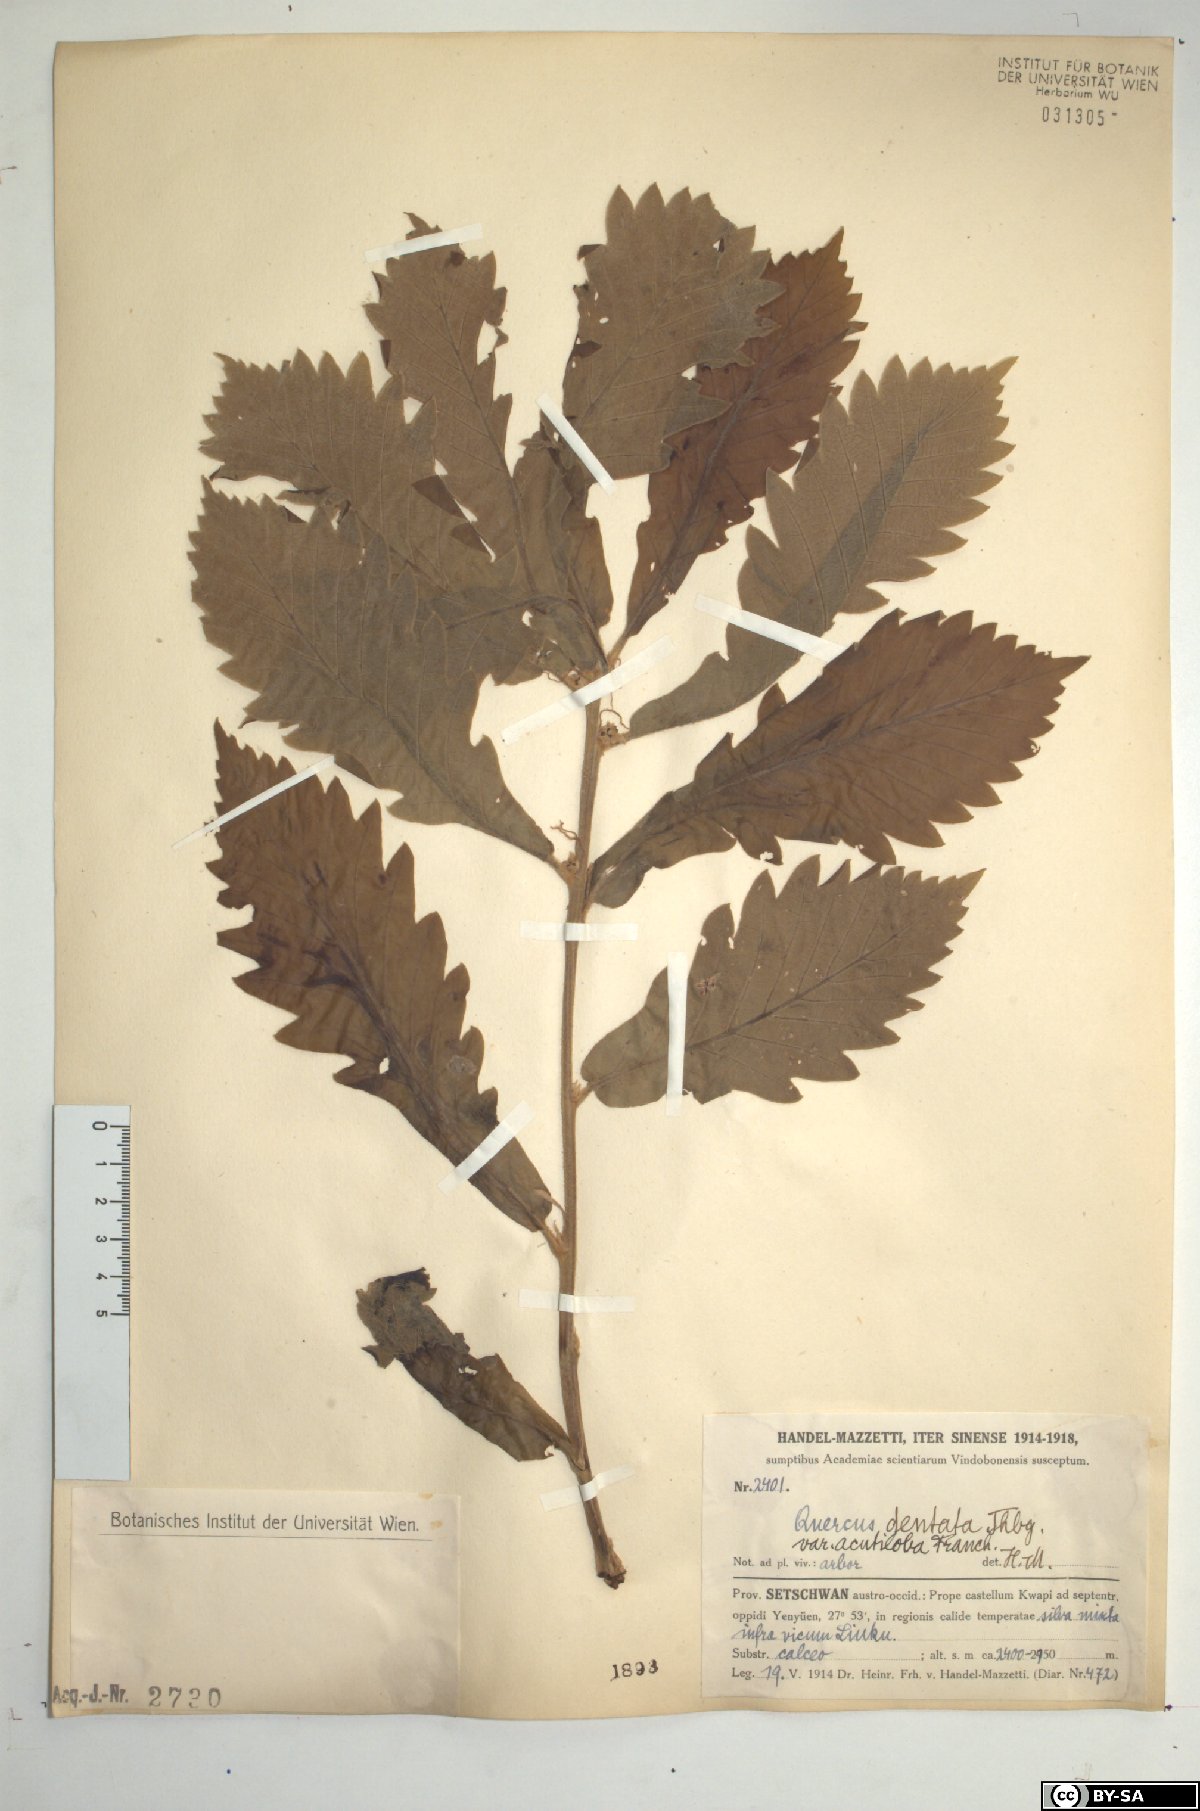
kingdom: Plantae
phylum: Tracheophyta
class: Magnoliopsida
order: Fagales
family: Fagaceae
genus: Quercus
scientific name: Quercus dentata
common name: Daimyo oak
